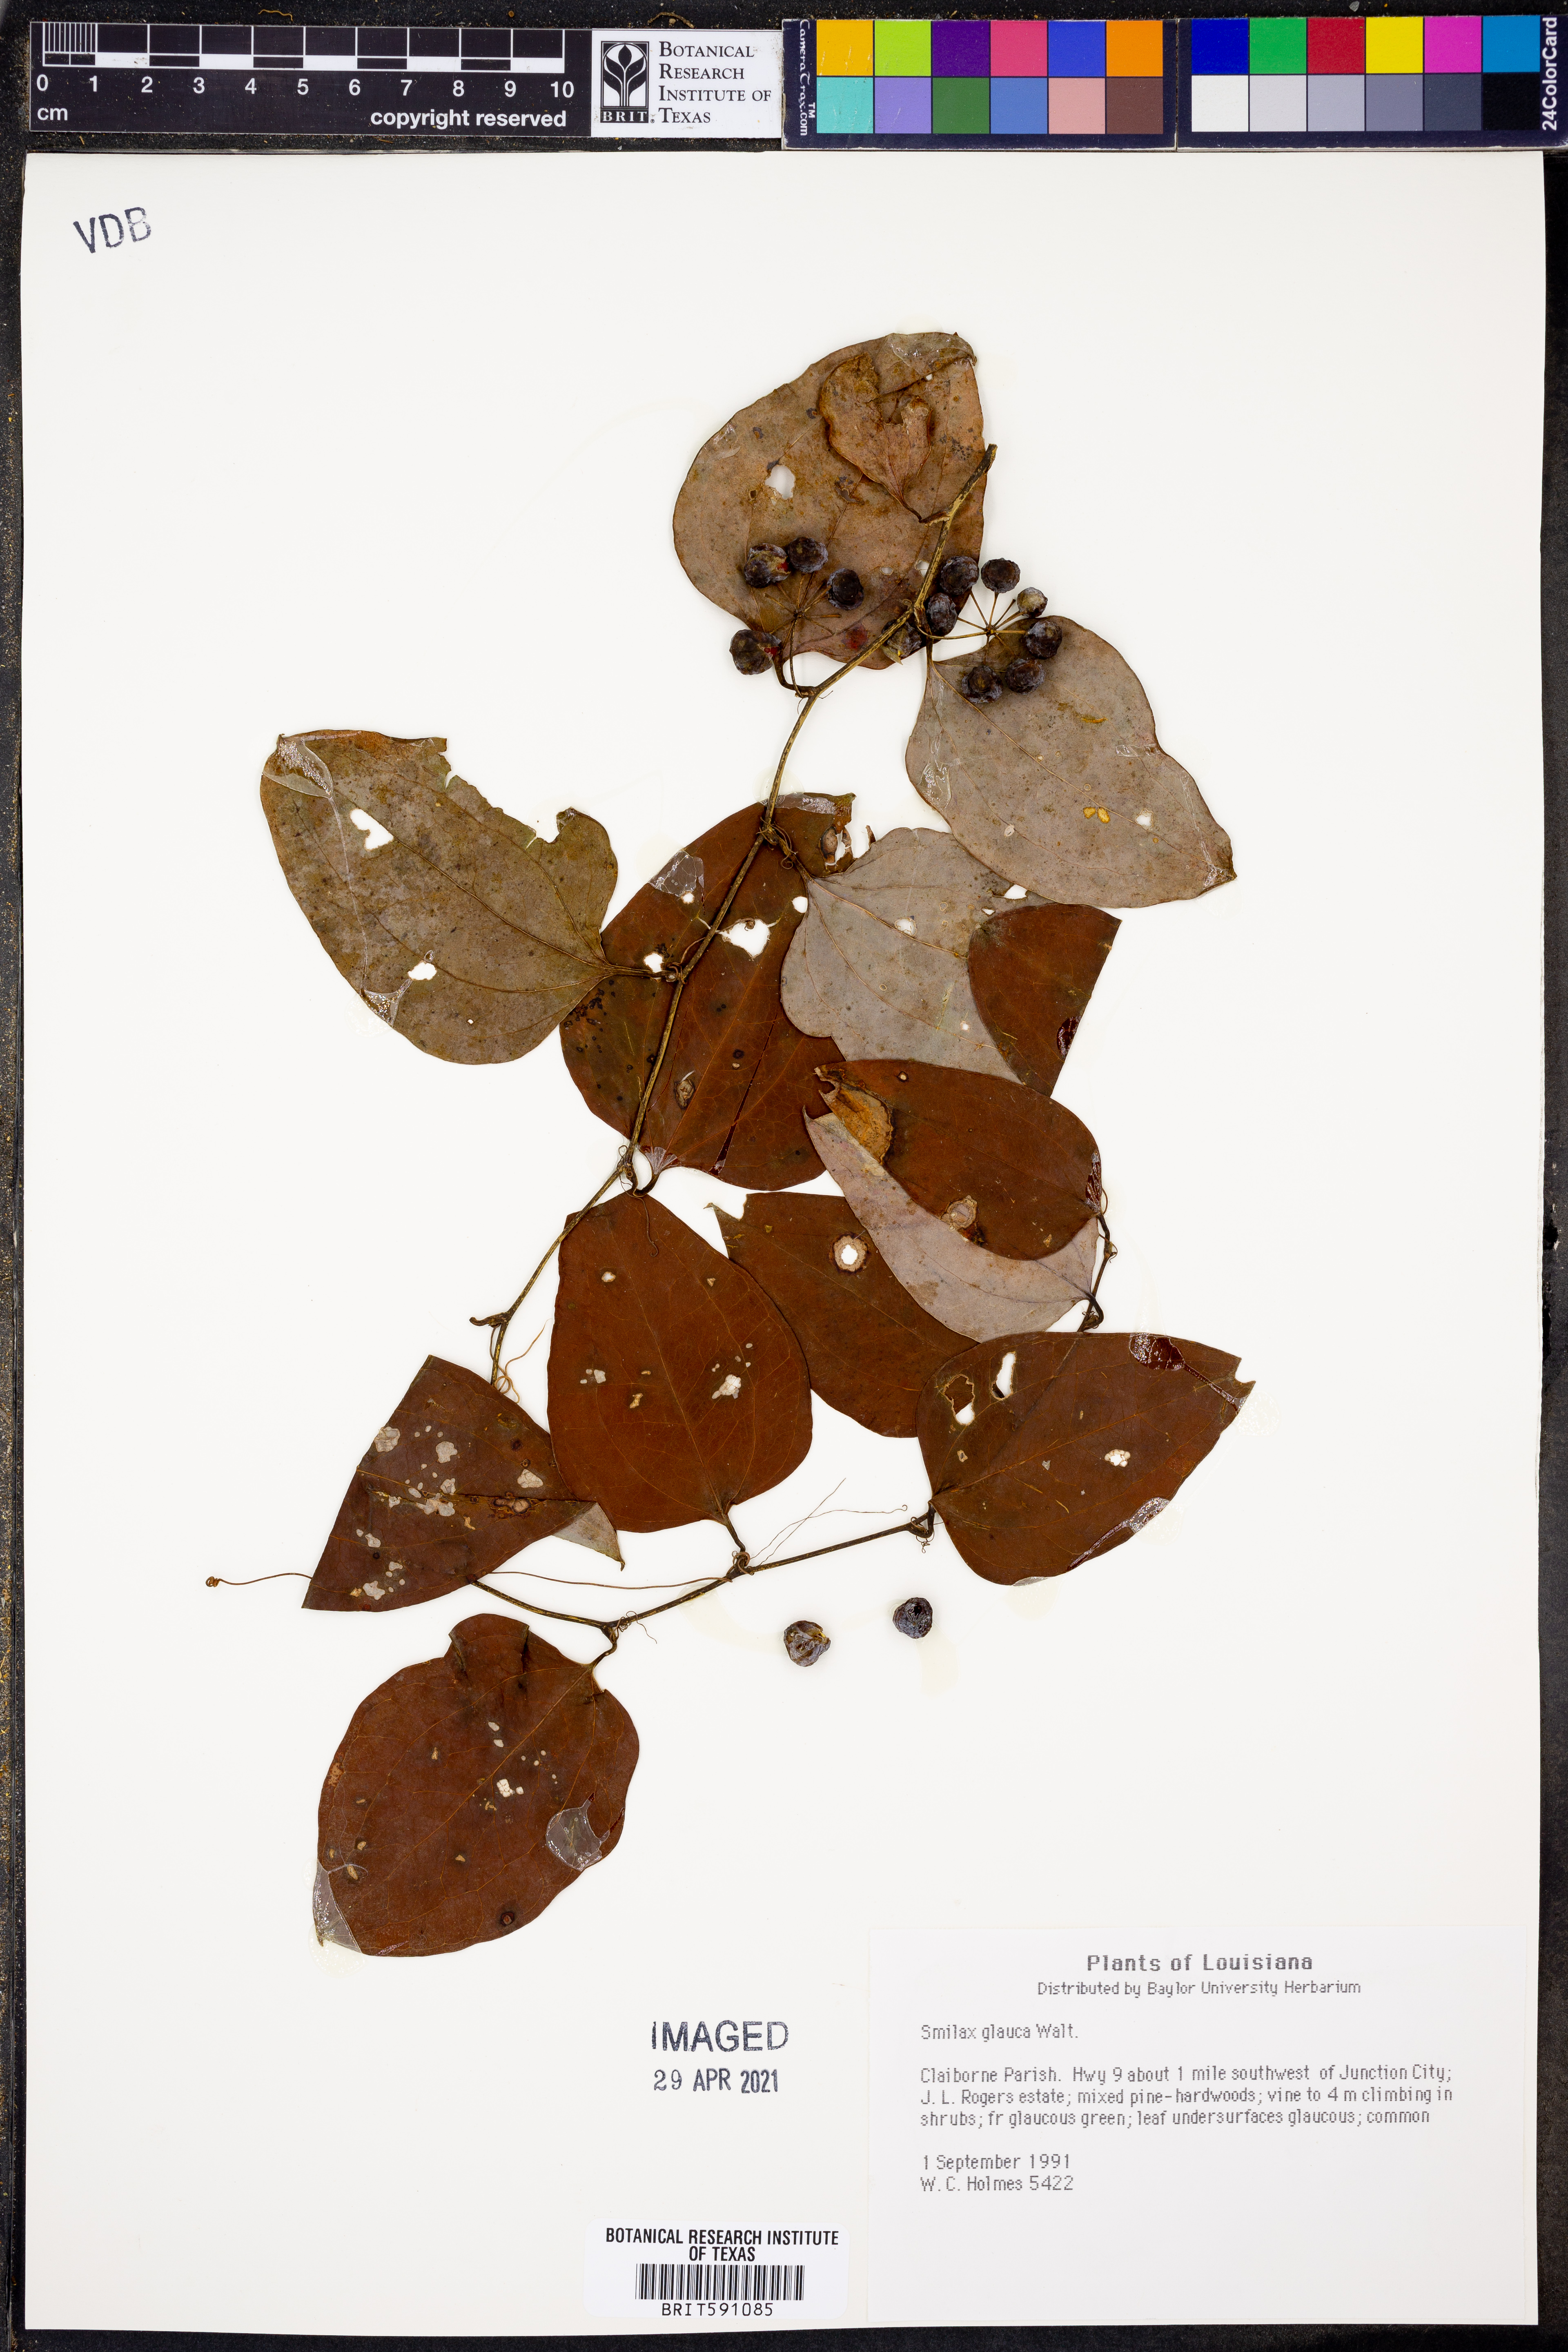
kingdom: Plantae
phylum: Tracheophyta
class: Liliopsida
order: Liliales
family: Smilacaceae
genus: Smilax
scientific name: Smilax glauca
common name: Cat greenbrier
